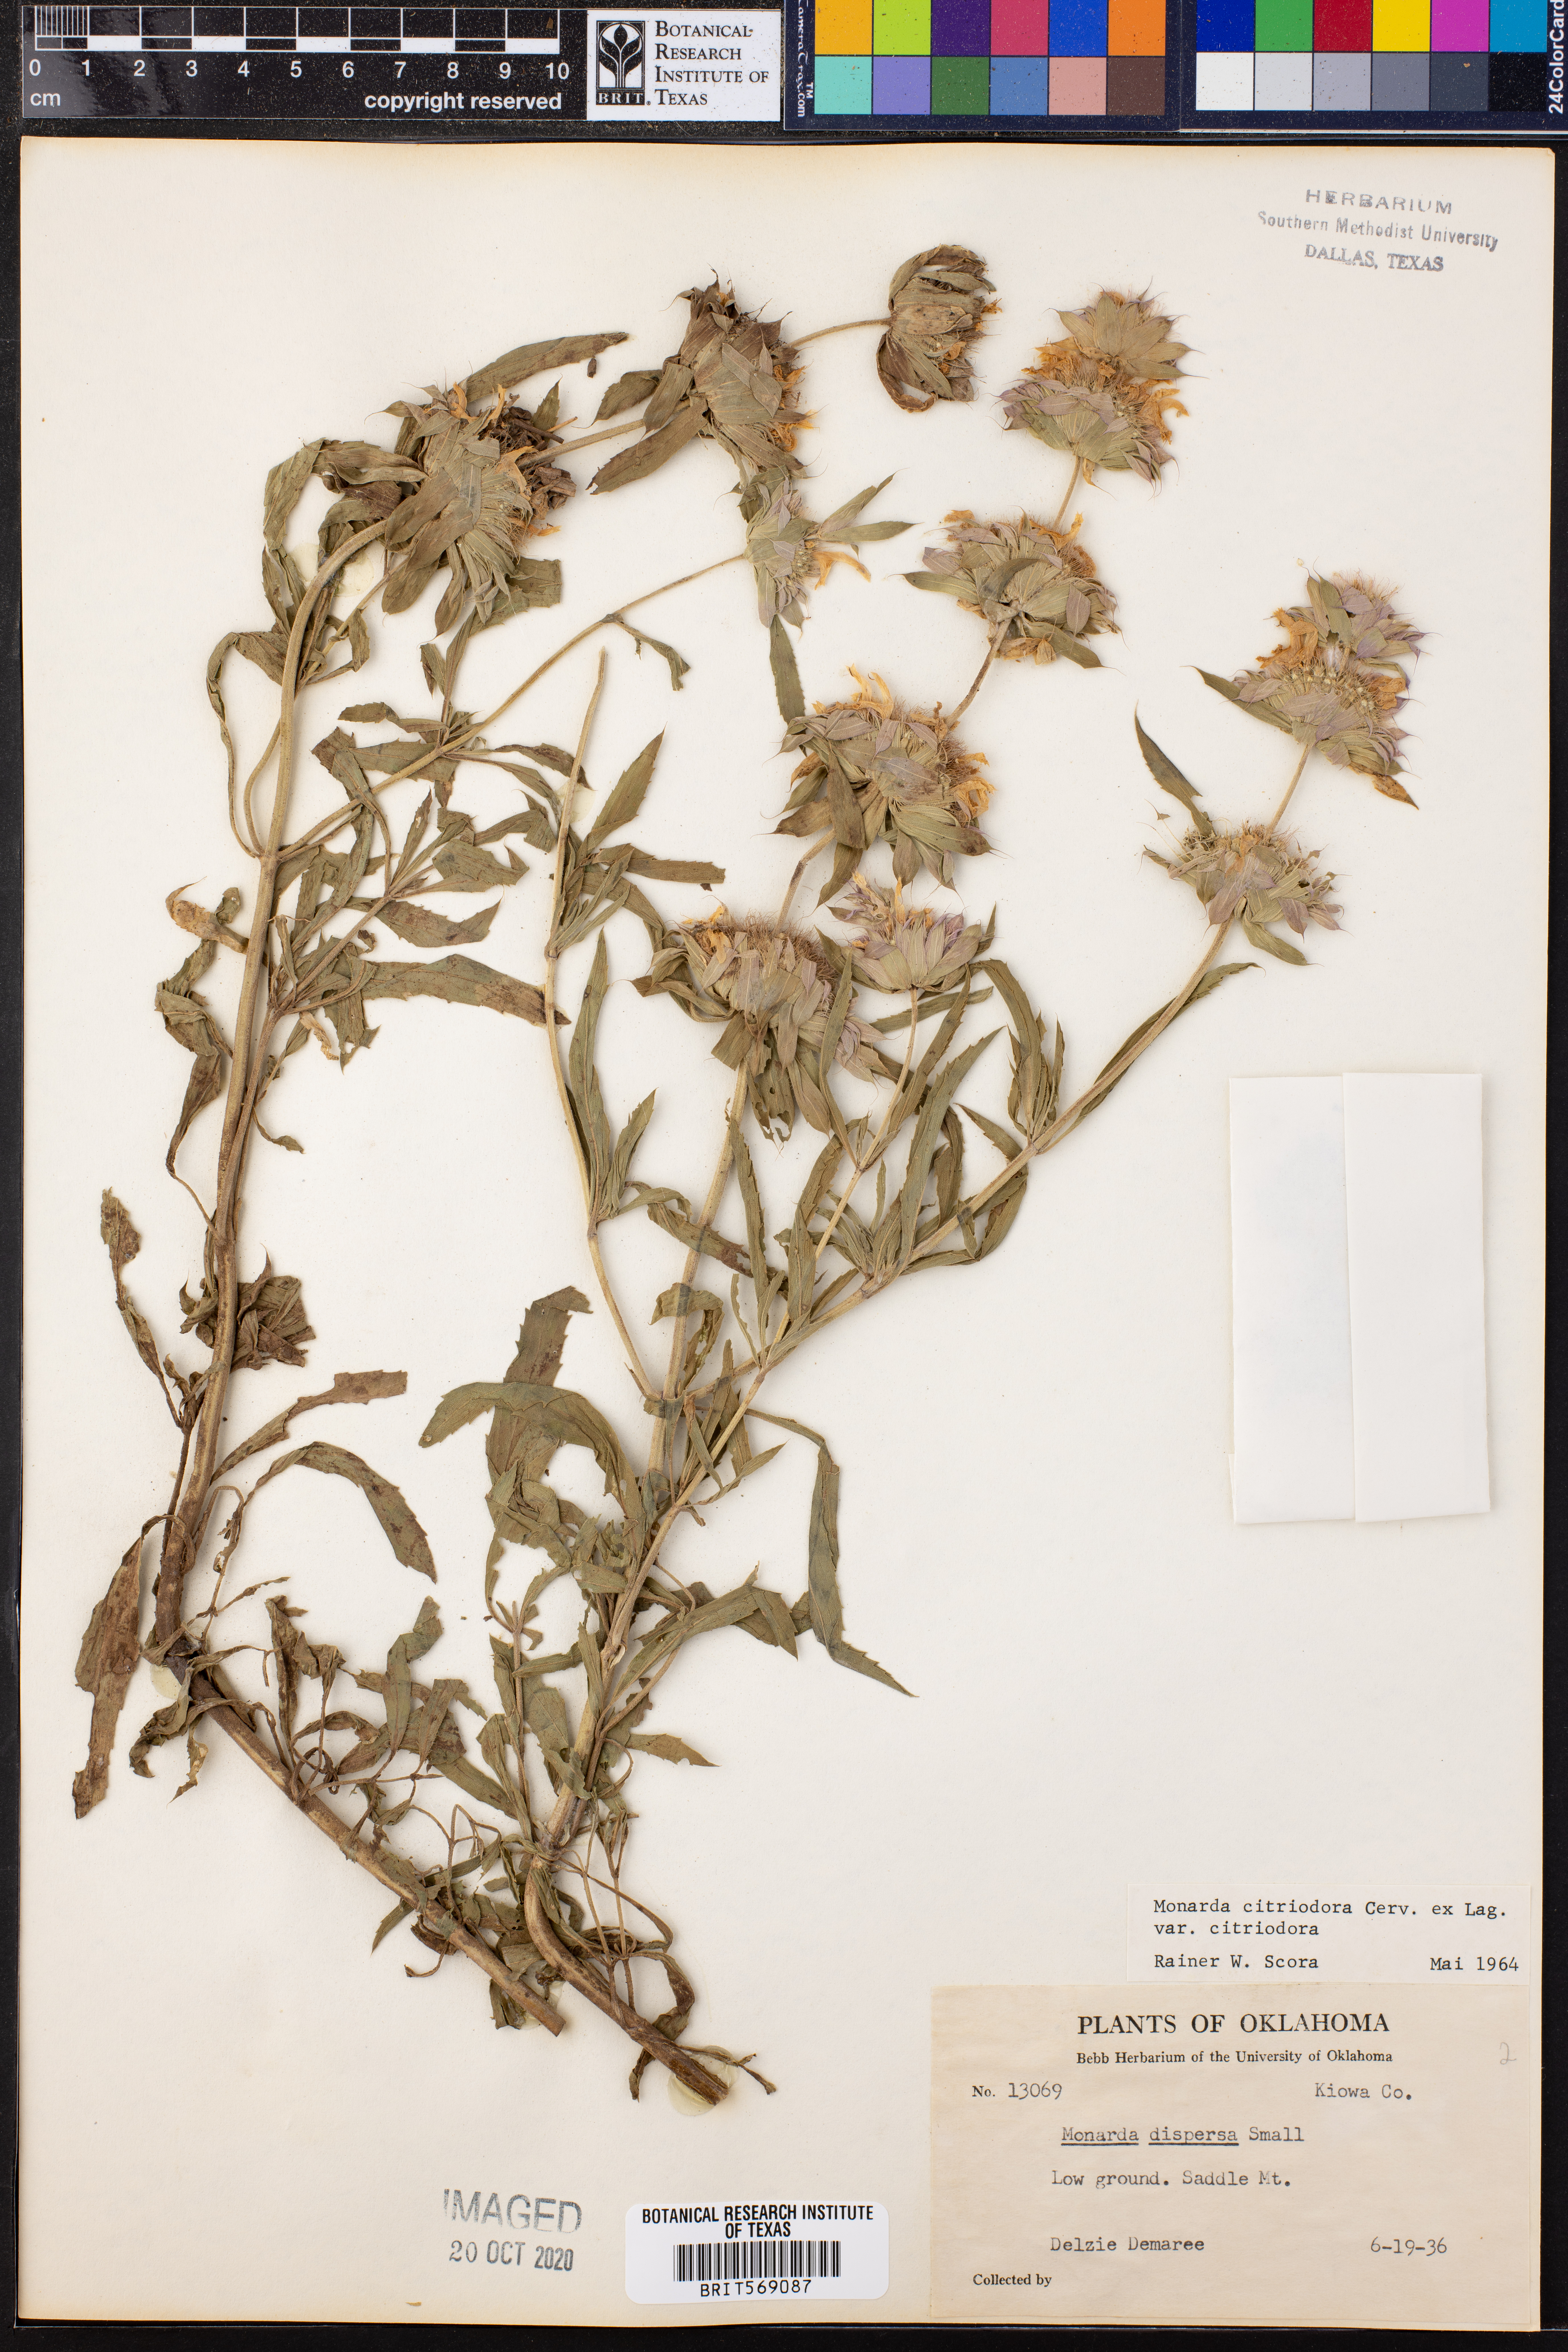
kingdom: Plantae
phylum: Tracheophyta
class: Magnoliopsida
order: Lamiales
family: Lamiaceae
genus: Monarda
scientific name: Monarda citriodora
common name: Lemon beebalm
